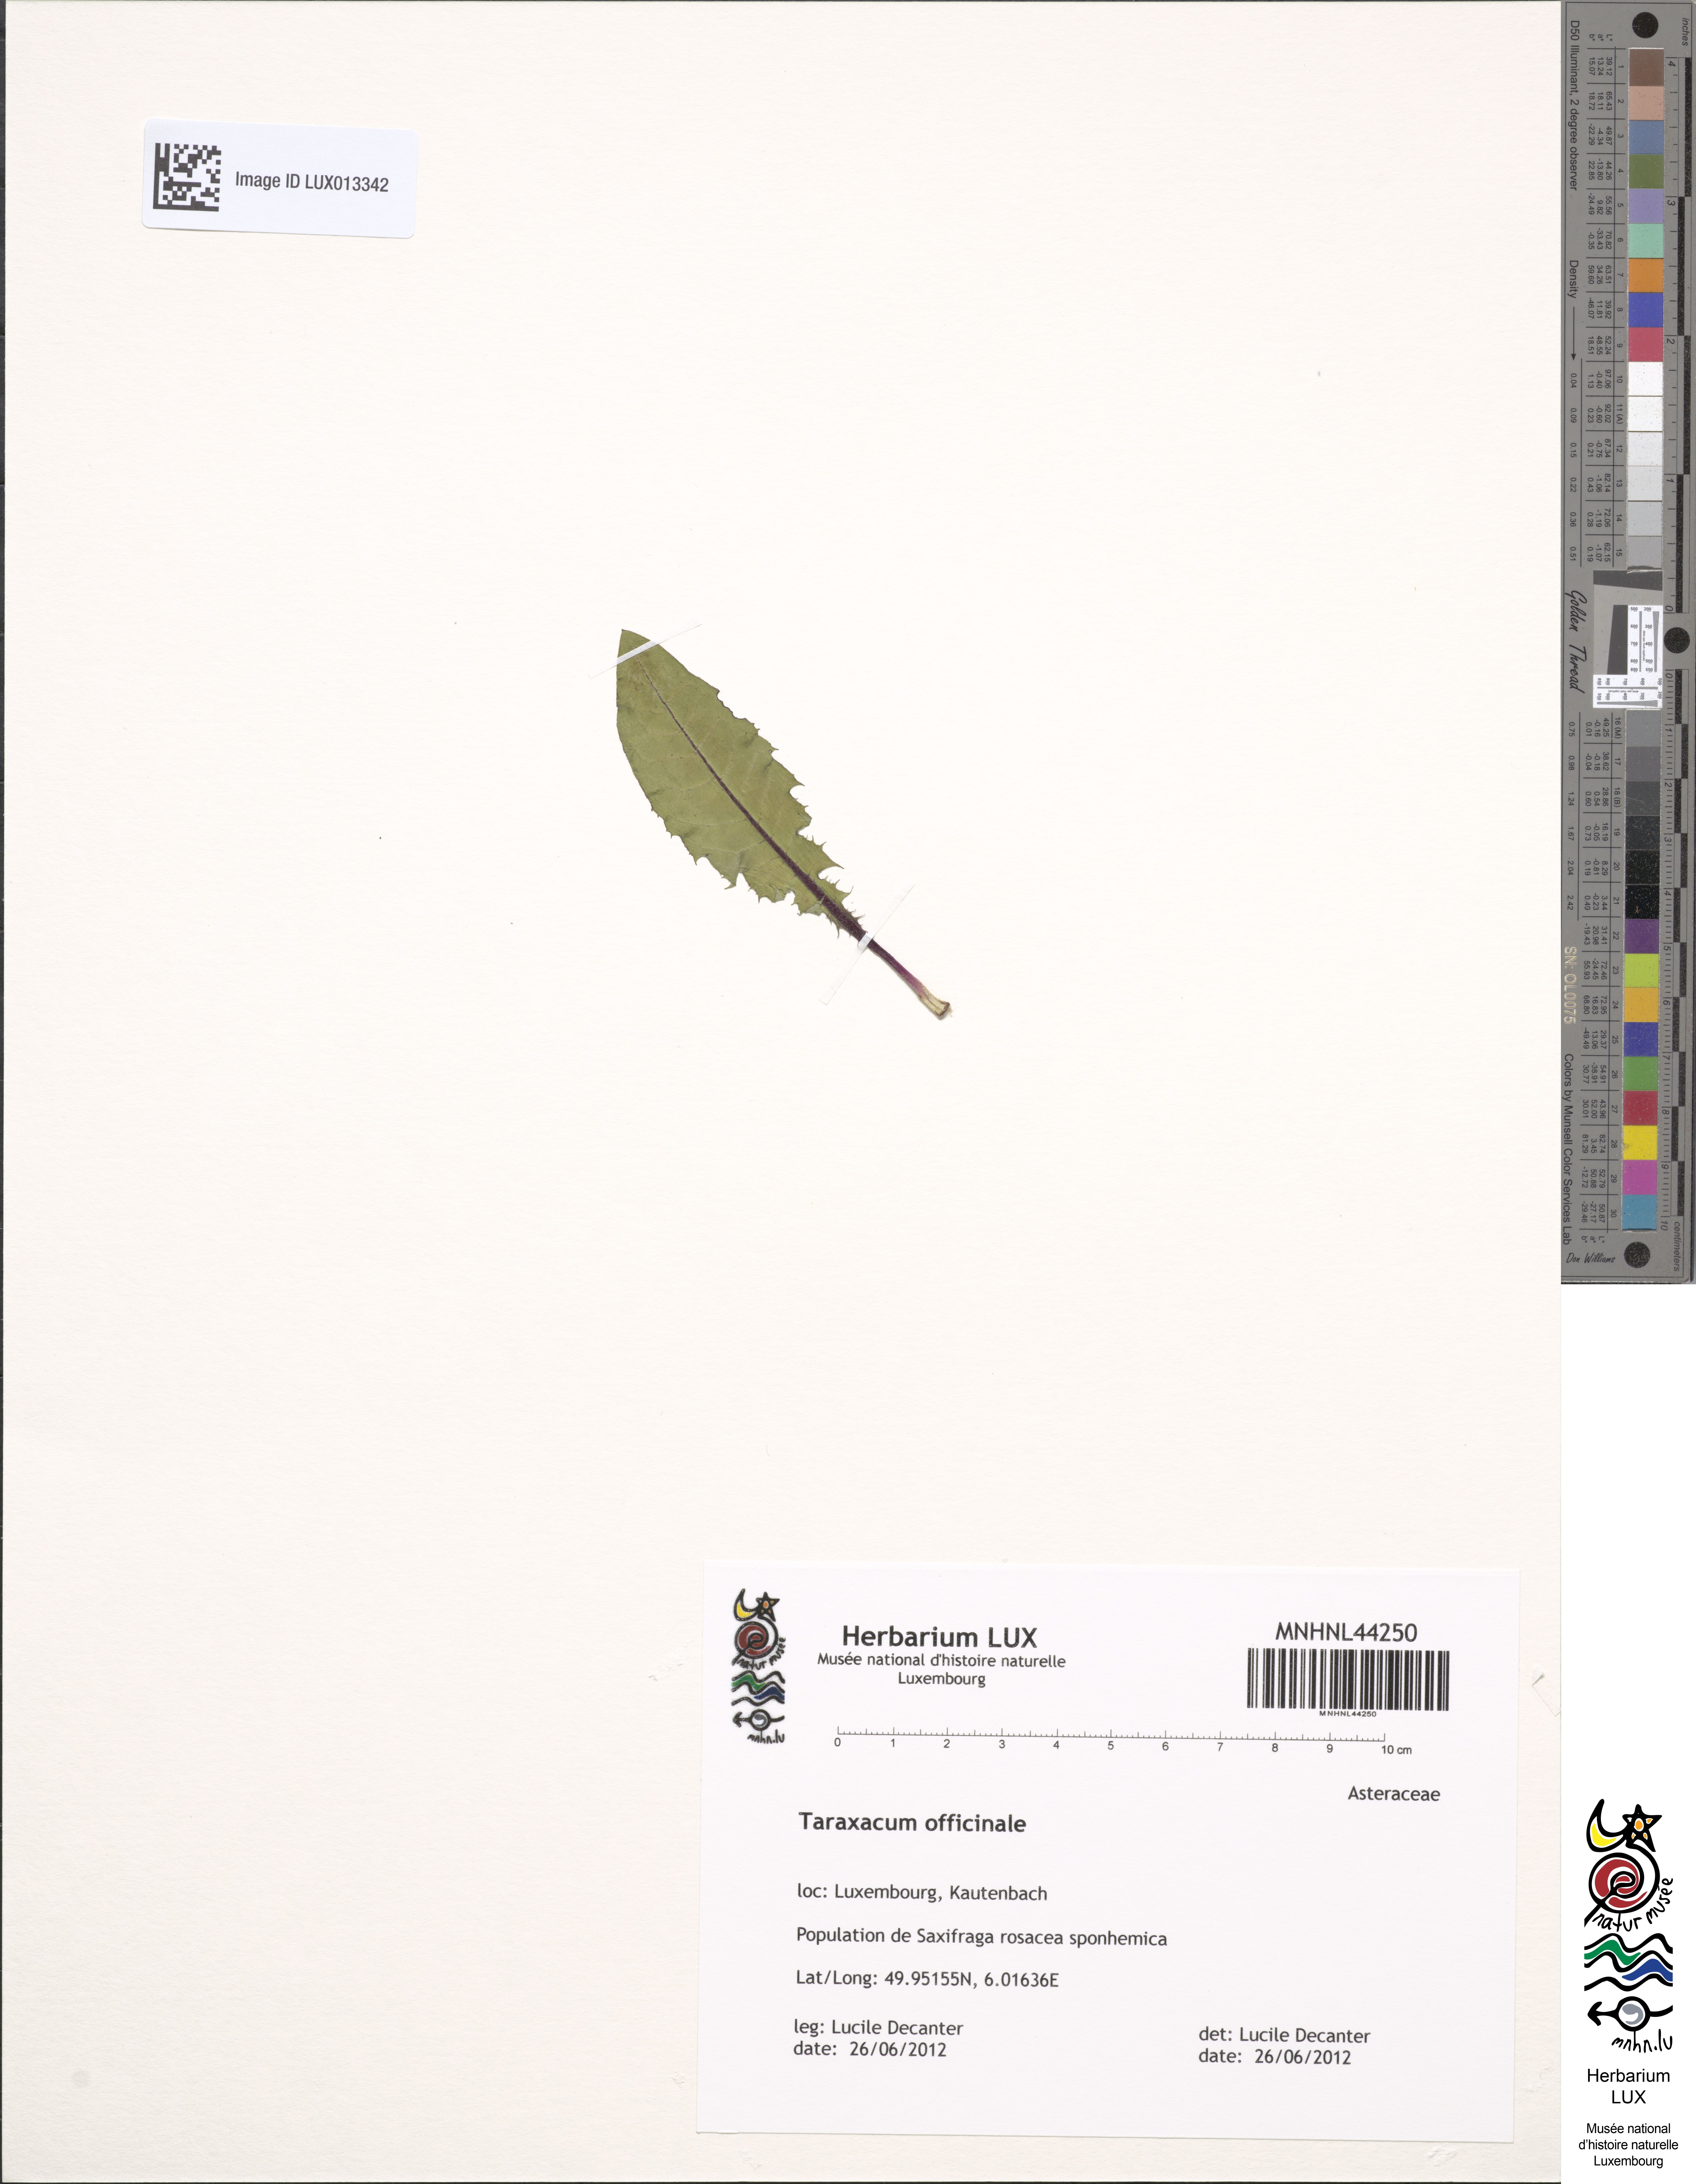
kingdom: Plantae
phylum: Tracheophyta
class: Magnoliopsida
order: Asterales
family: Asteraceae
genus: Taraxacum
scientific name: Taraxacum
